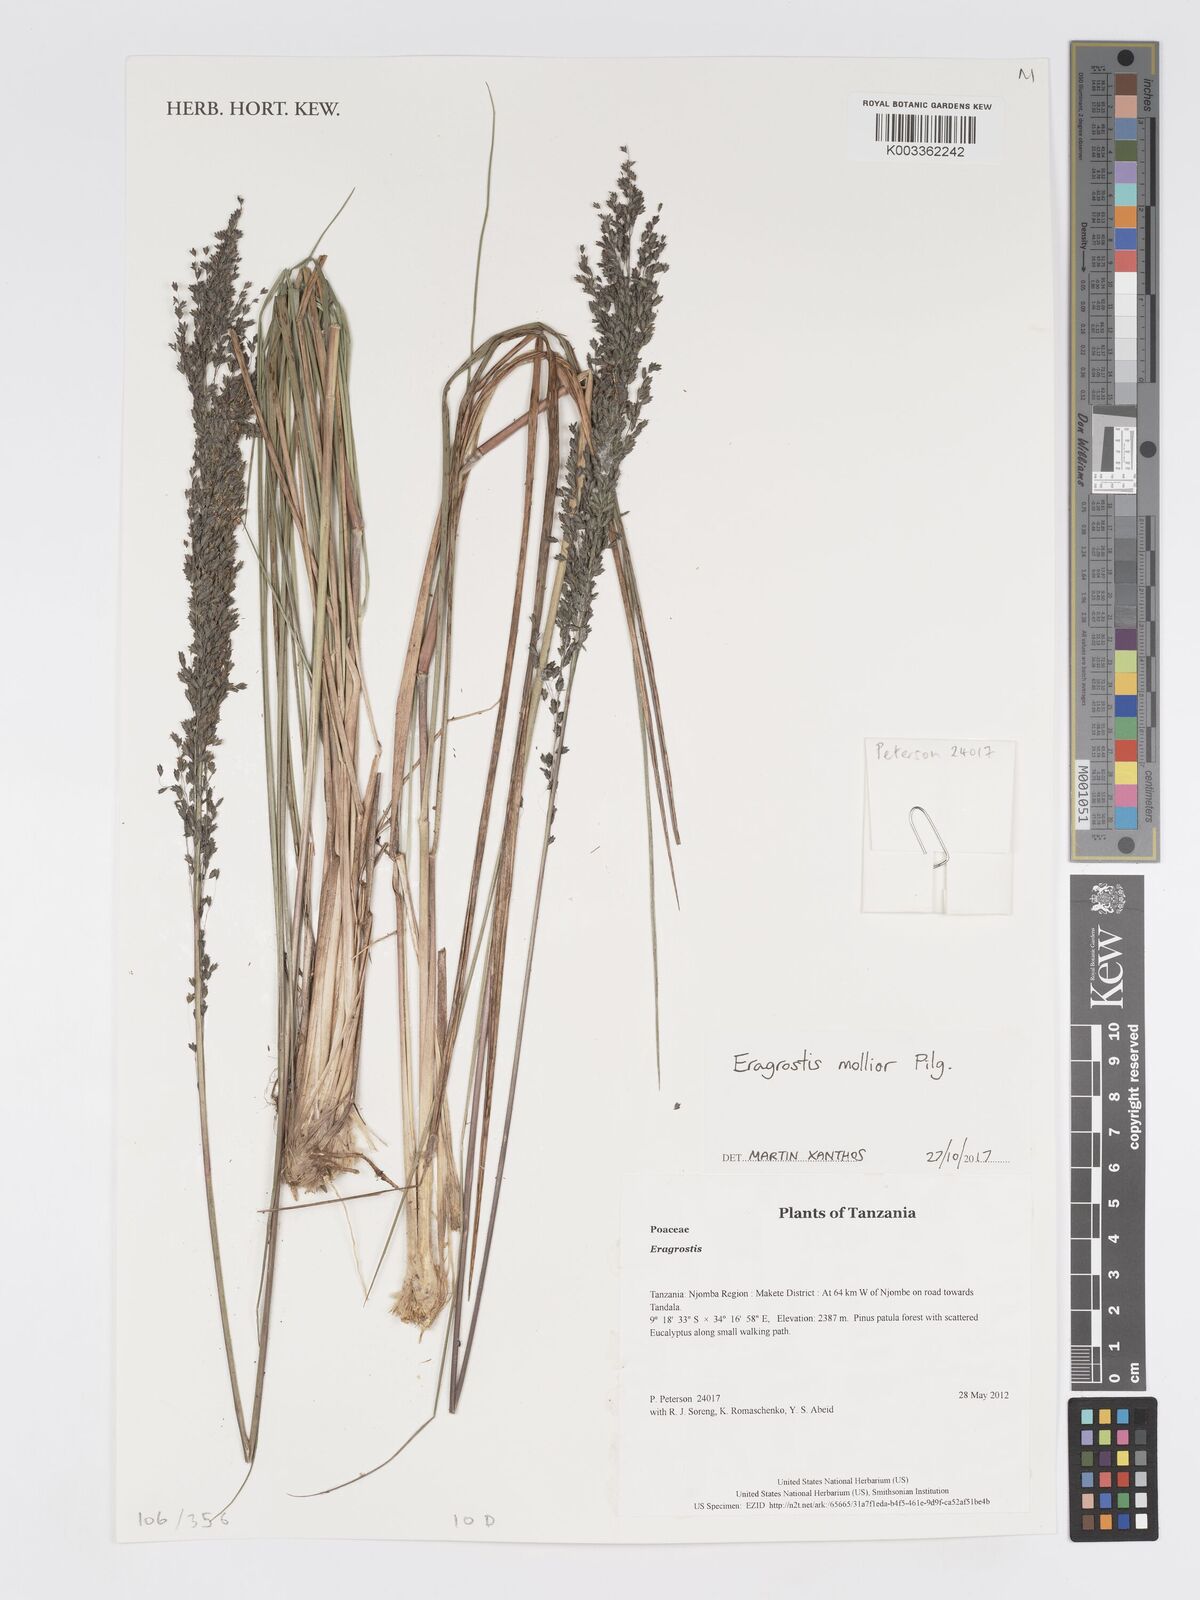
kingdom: Plantae
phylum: Tracheophyta
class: Liliopsida
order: Poales
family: Poaceae
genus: Eragrostis
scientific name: Eragrostis mollior
